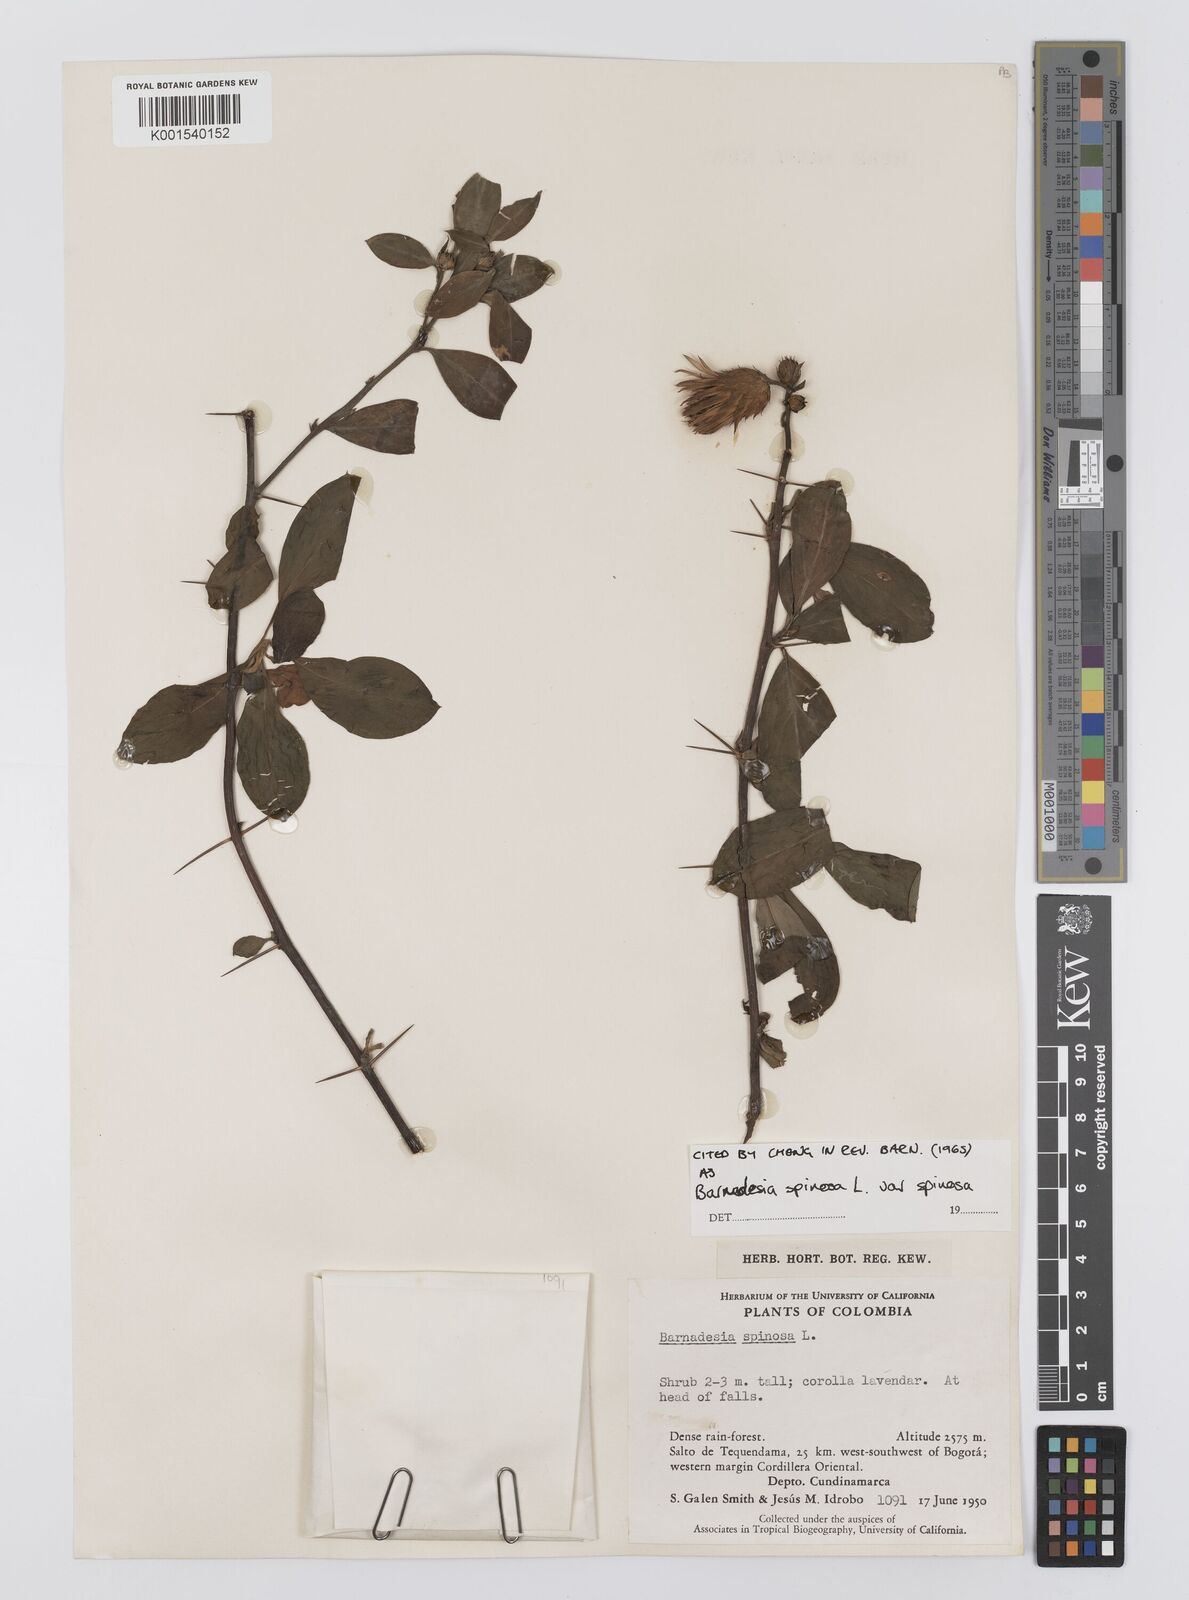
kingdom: Plantae
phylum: Tracheophyta
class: Magnoliopsida
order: Asterales
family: Asteraceae
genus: Barnadesia
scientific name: Barnadesia spinosa
